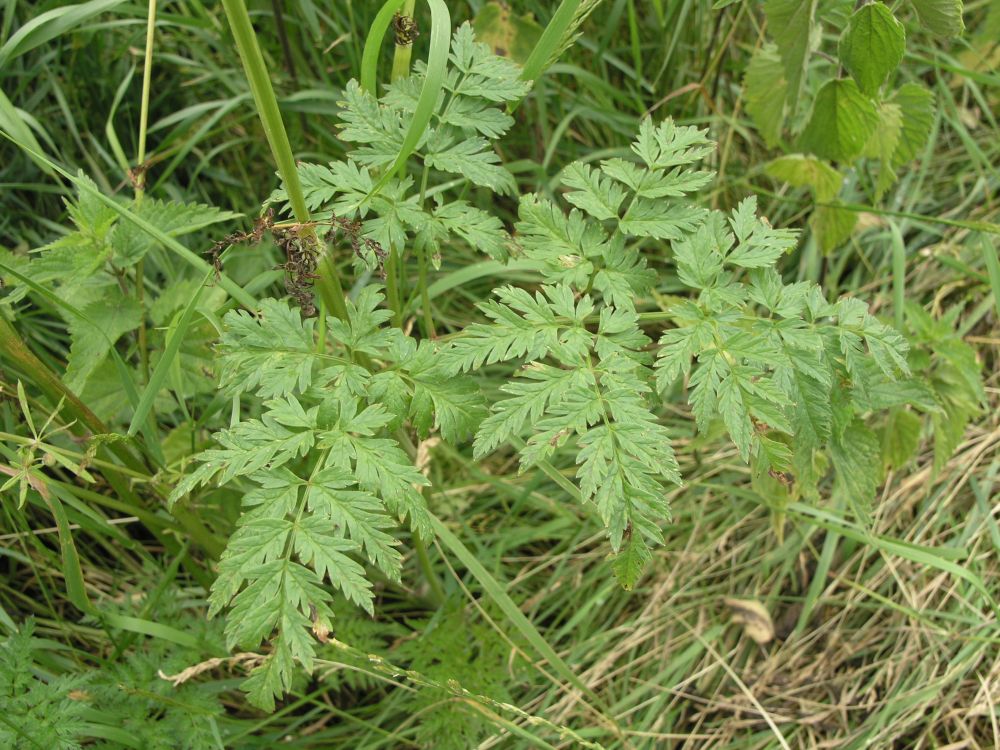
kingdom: Plantae
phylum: Tracheophyta
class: Magnoliopsida
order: Apiales
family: Apiaceae
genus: Anthriscus
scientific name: Anthriscus sylvestris
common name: Cow parsley
